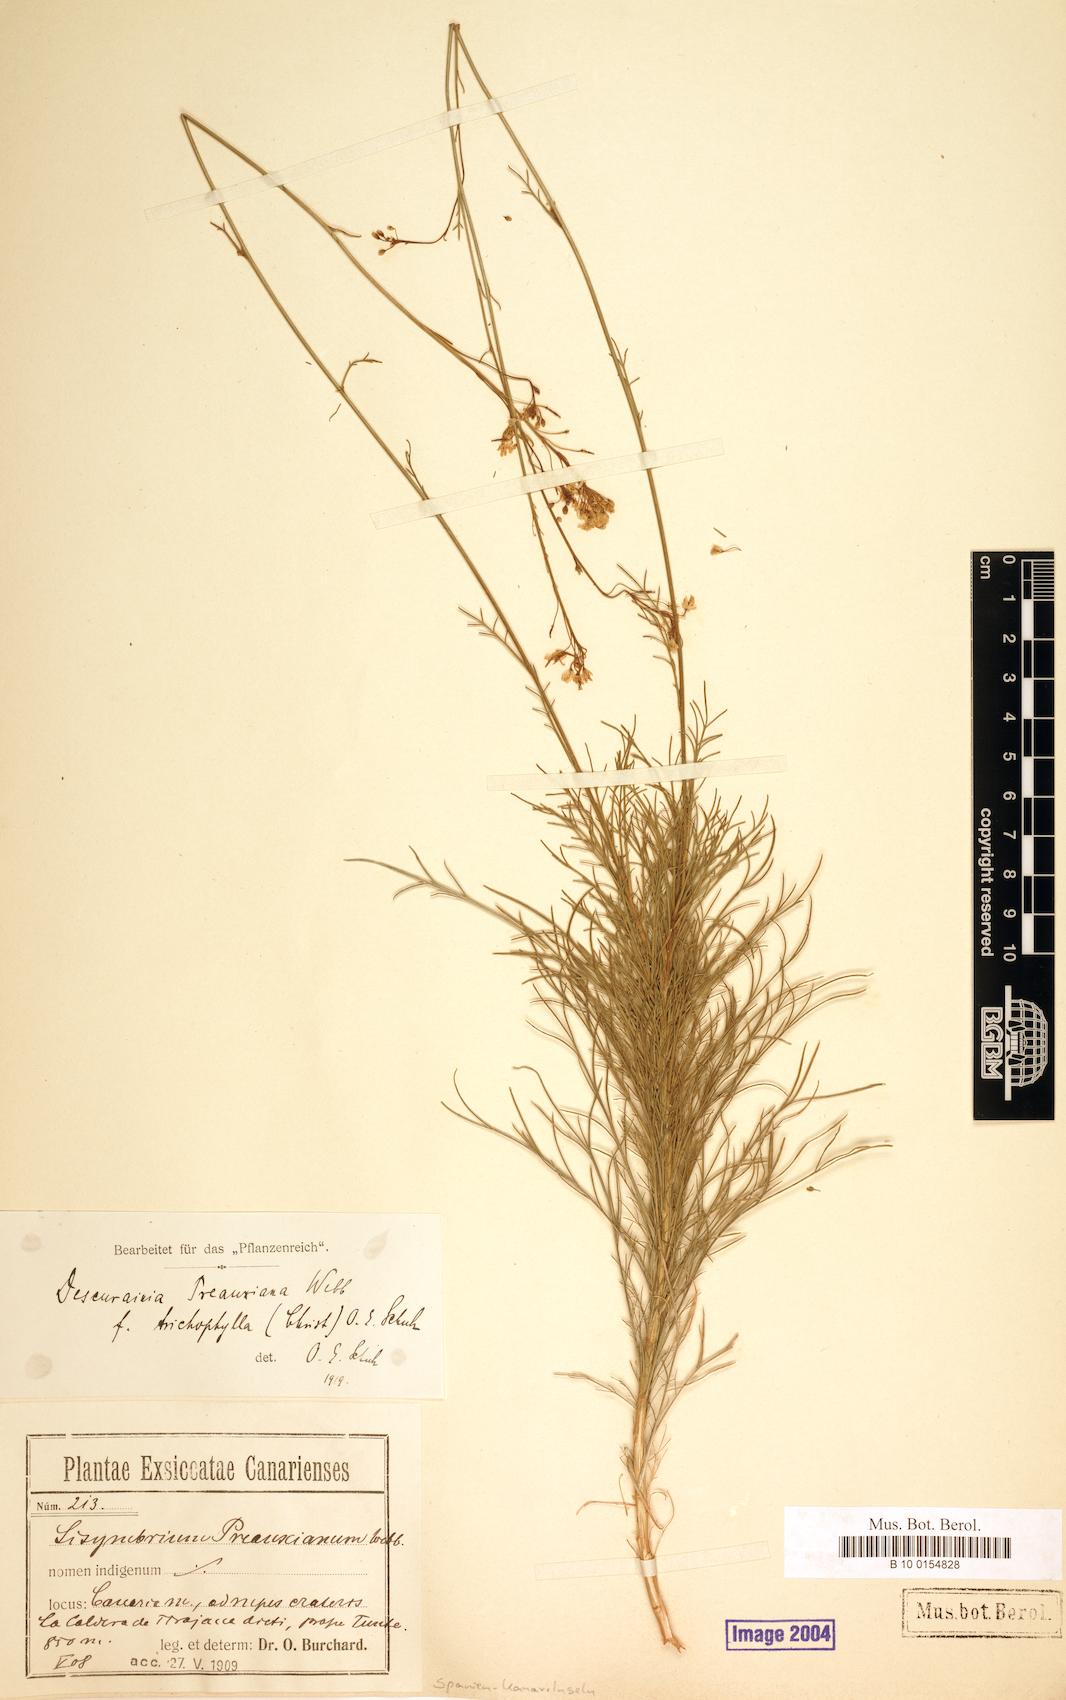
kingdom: Plantae
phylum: Tracheophyta
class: Magnoliopsida
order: Brassicales
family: Brassicaceae
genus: Descurainia
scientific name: Descurainia preauxiana
